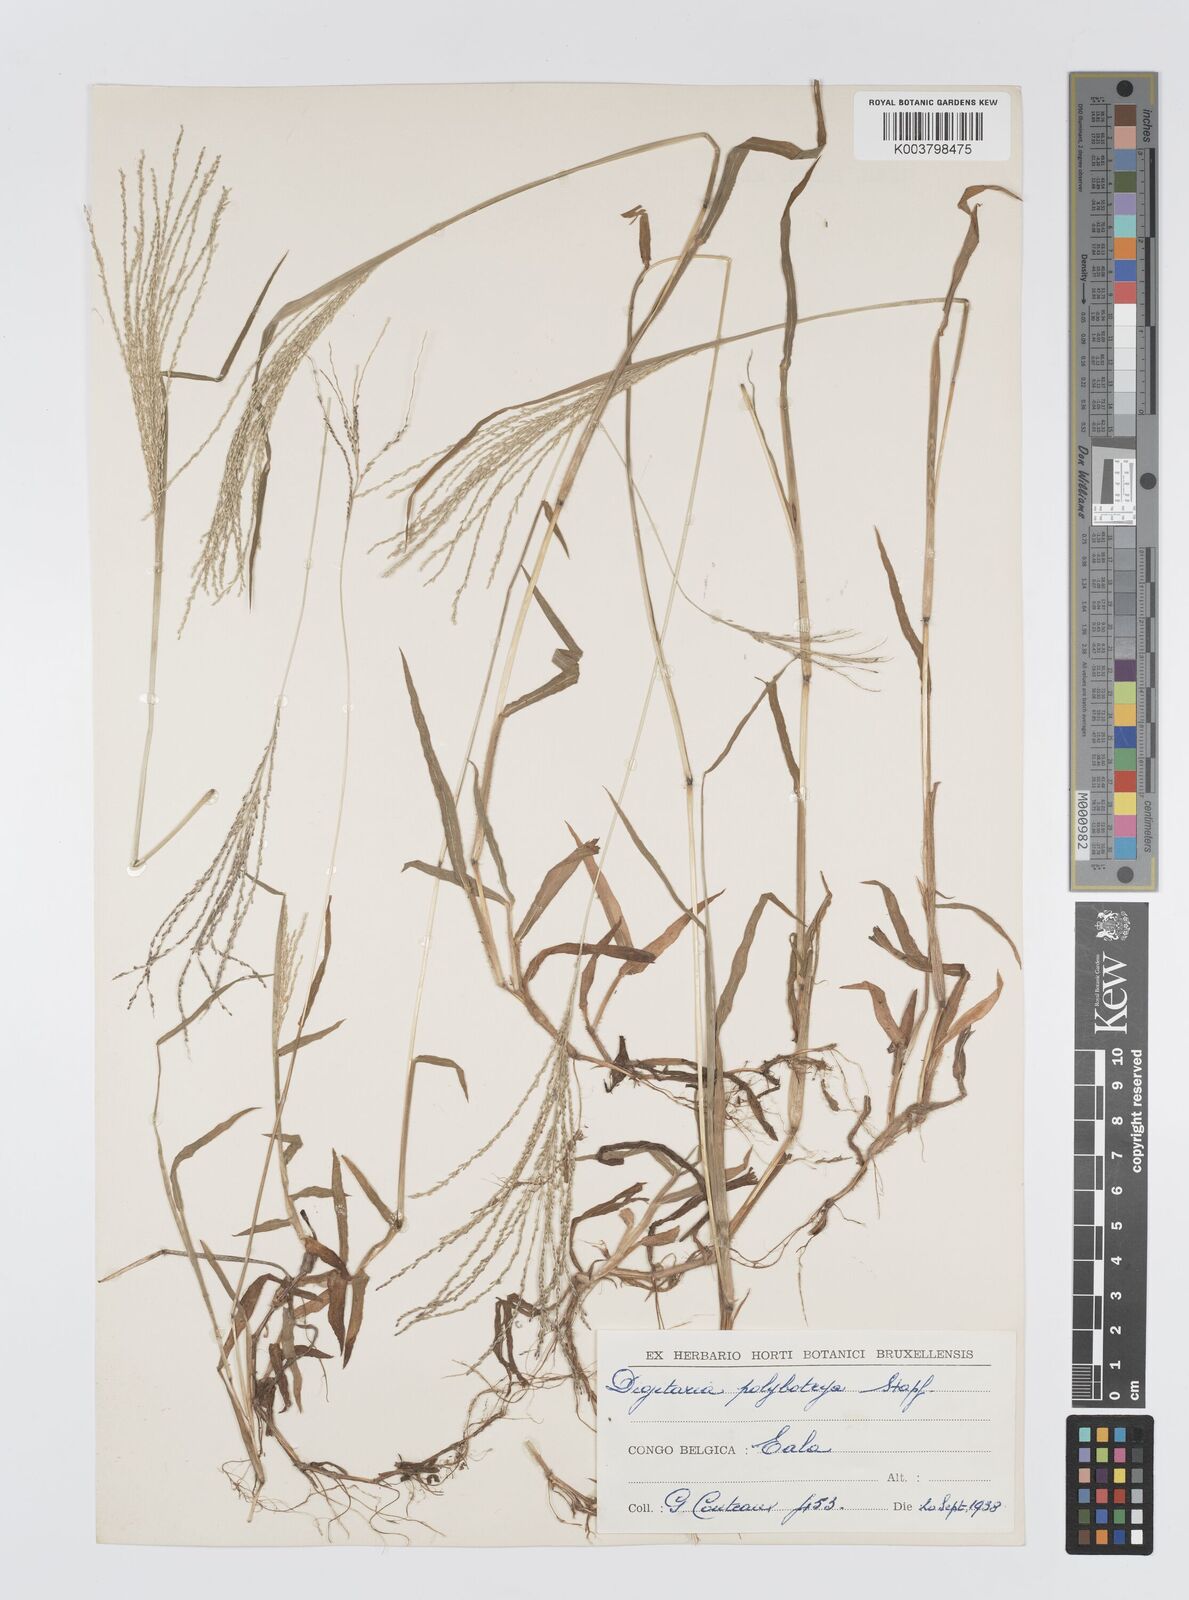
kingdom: Plantae
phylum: Tracheophyta
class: Liliopsida
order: Poales
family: Poaceae
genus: Digitaria
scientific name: Digitaria leptorhachis
